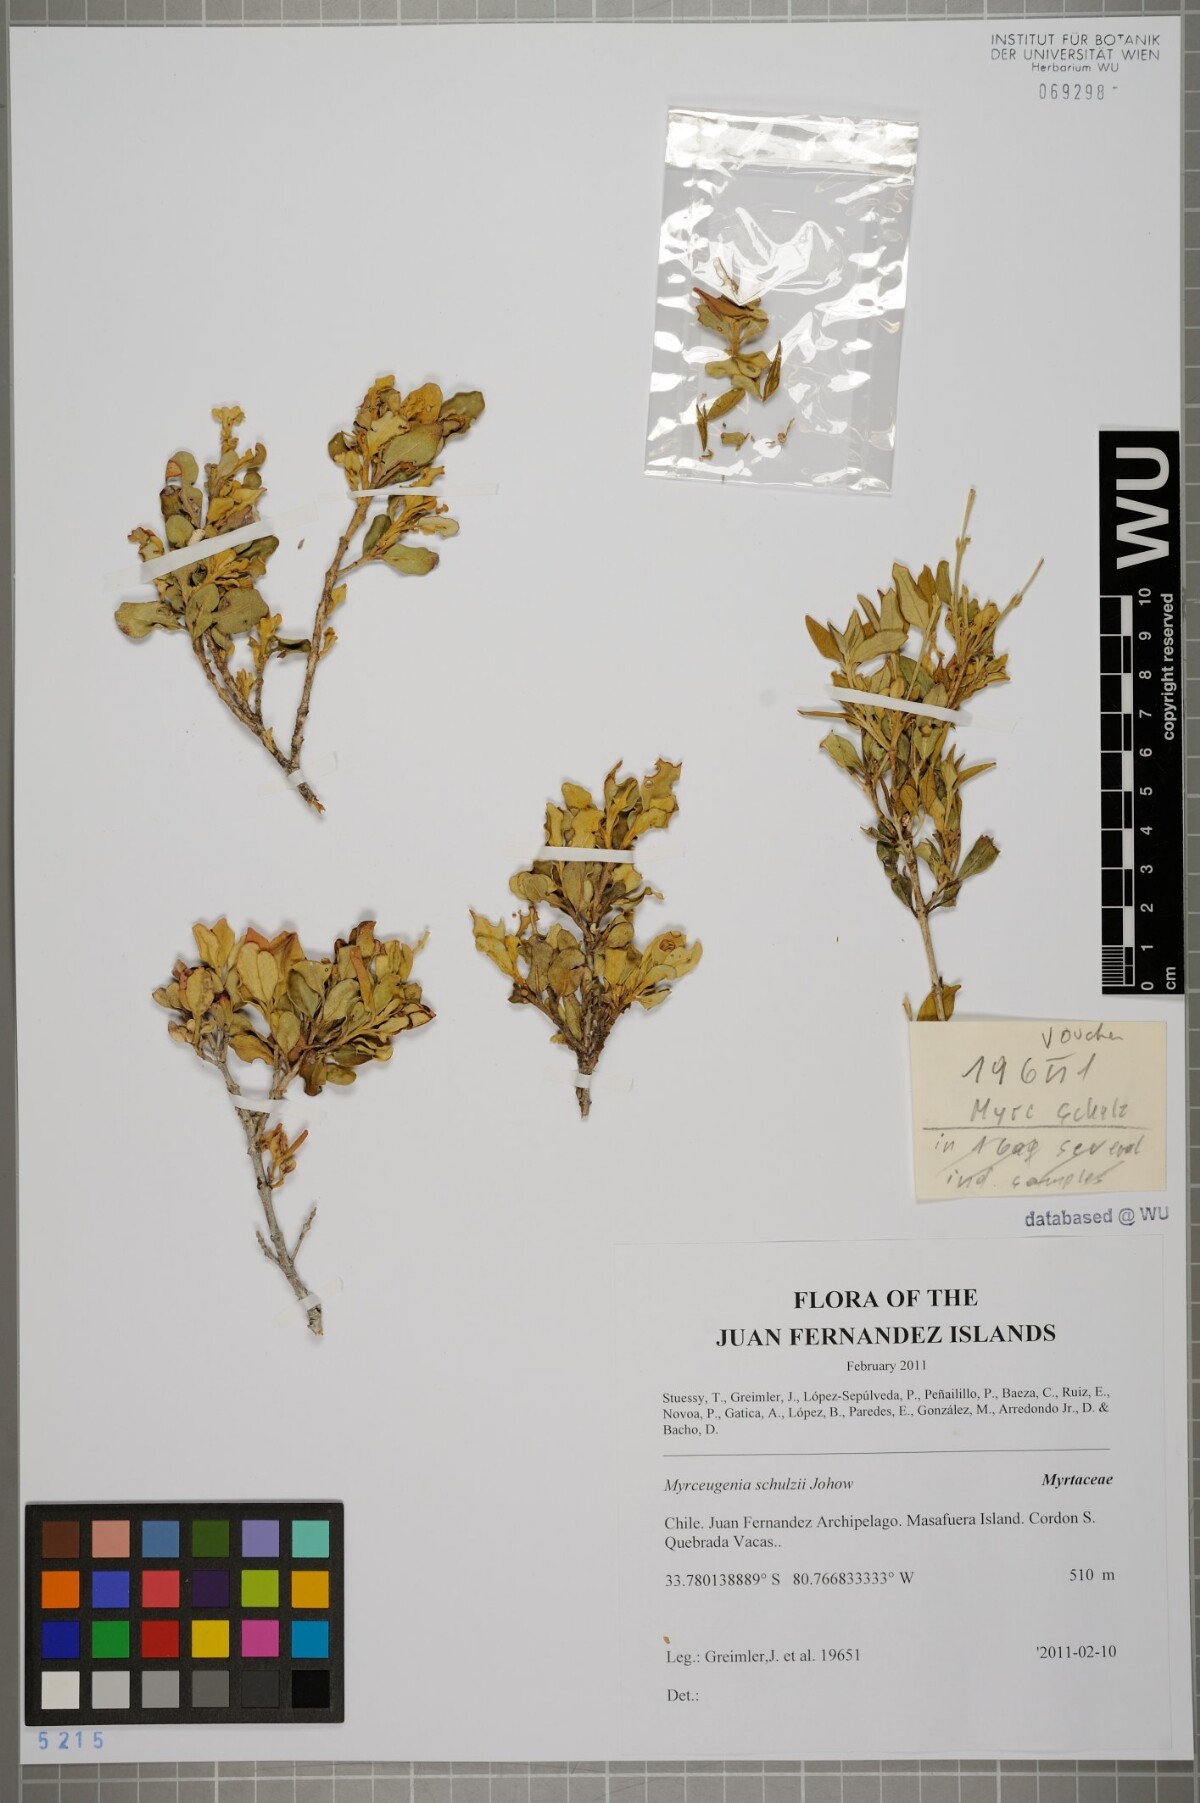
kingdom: Plantae
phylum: Tracheophyta
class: Magnoliopsida
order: Myrtales
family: Myrtaceae
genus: Myrceugenia
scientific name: Myrceugenia schulzei
